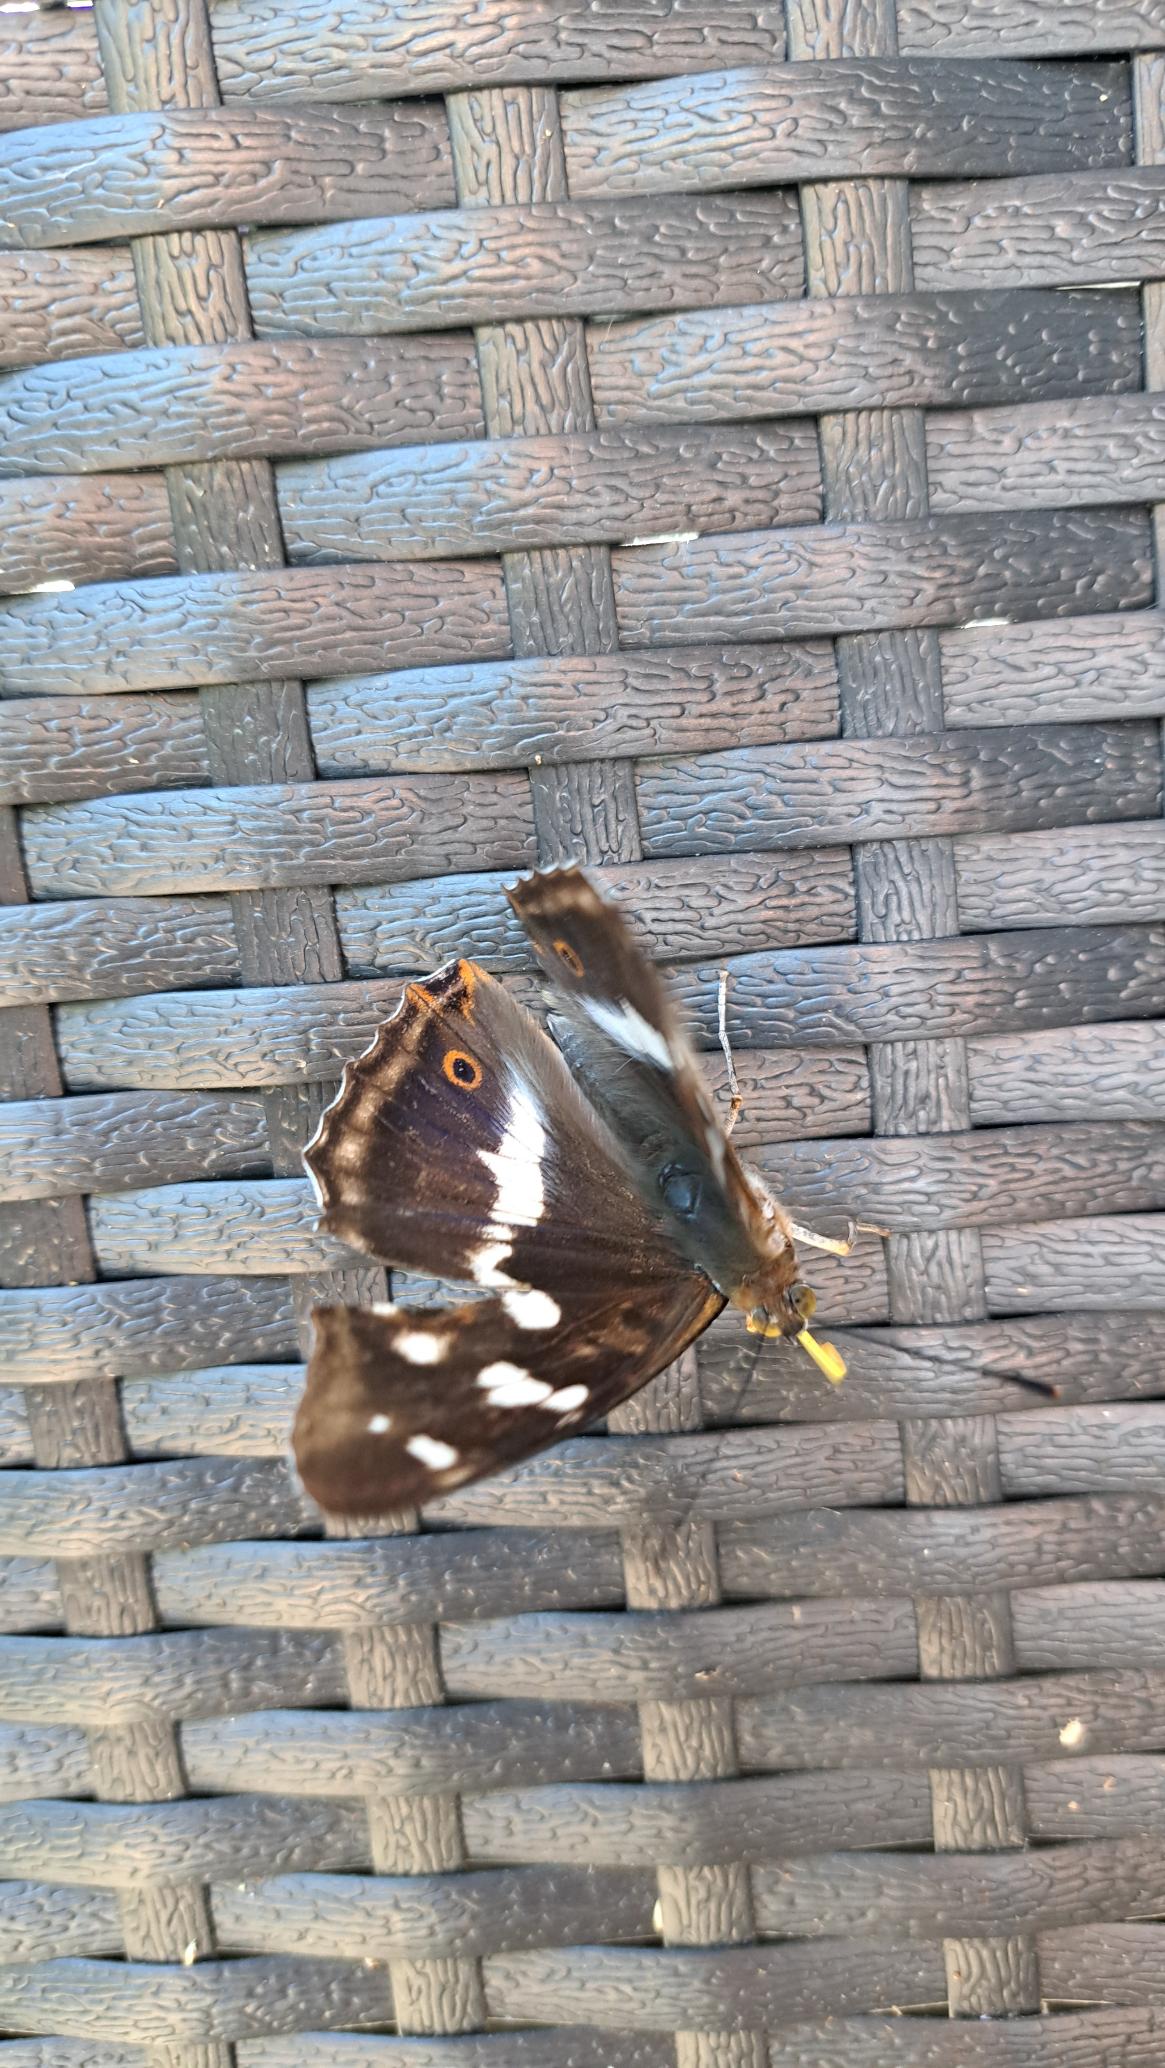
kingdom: Animalia
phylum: Arthropoda
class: Insecta
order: Lepidoptera
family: Nymphalidae
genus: Apatura
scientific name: Apatura iris
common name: Iris
